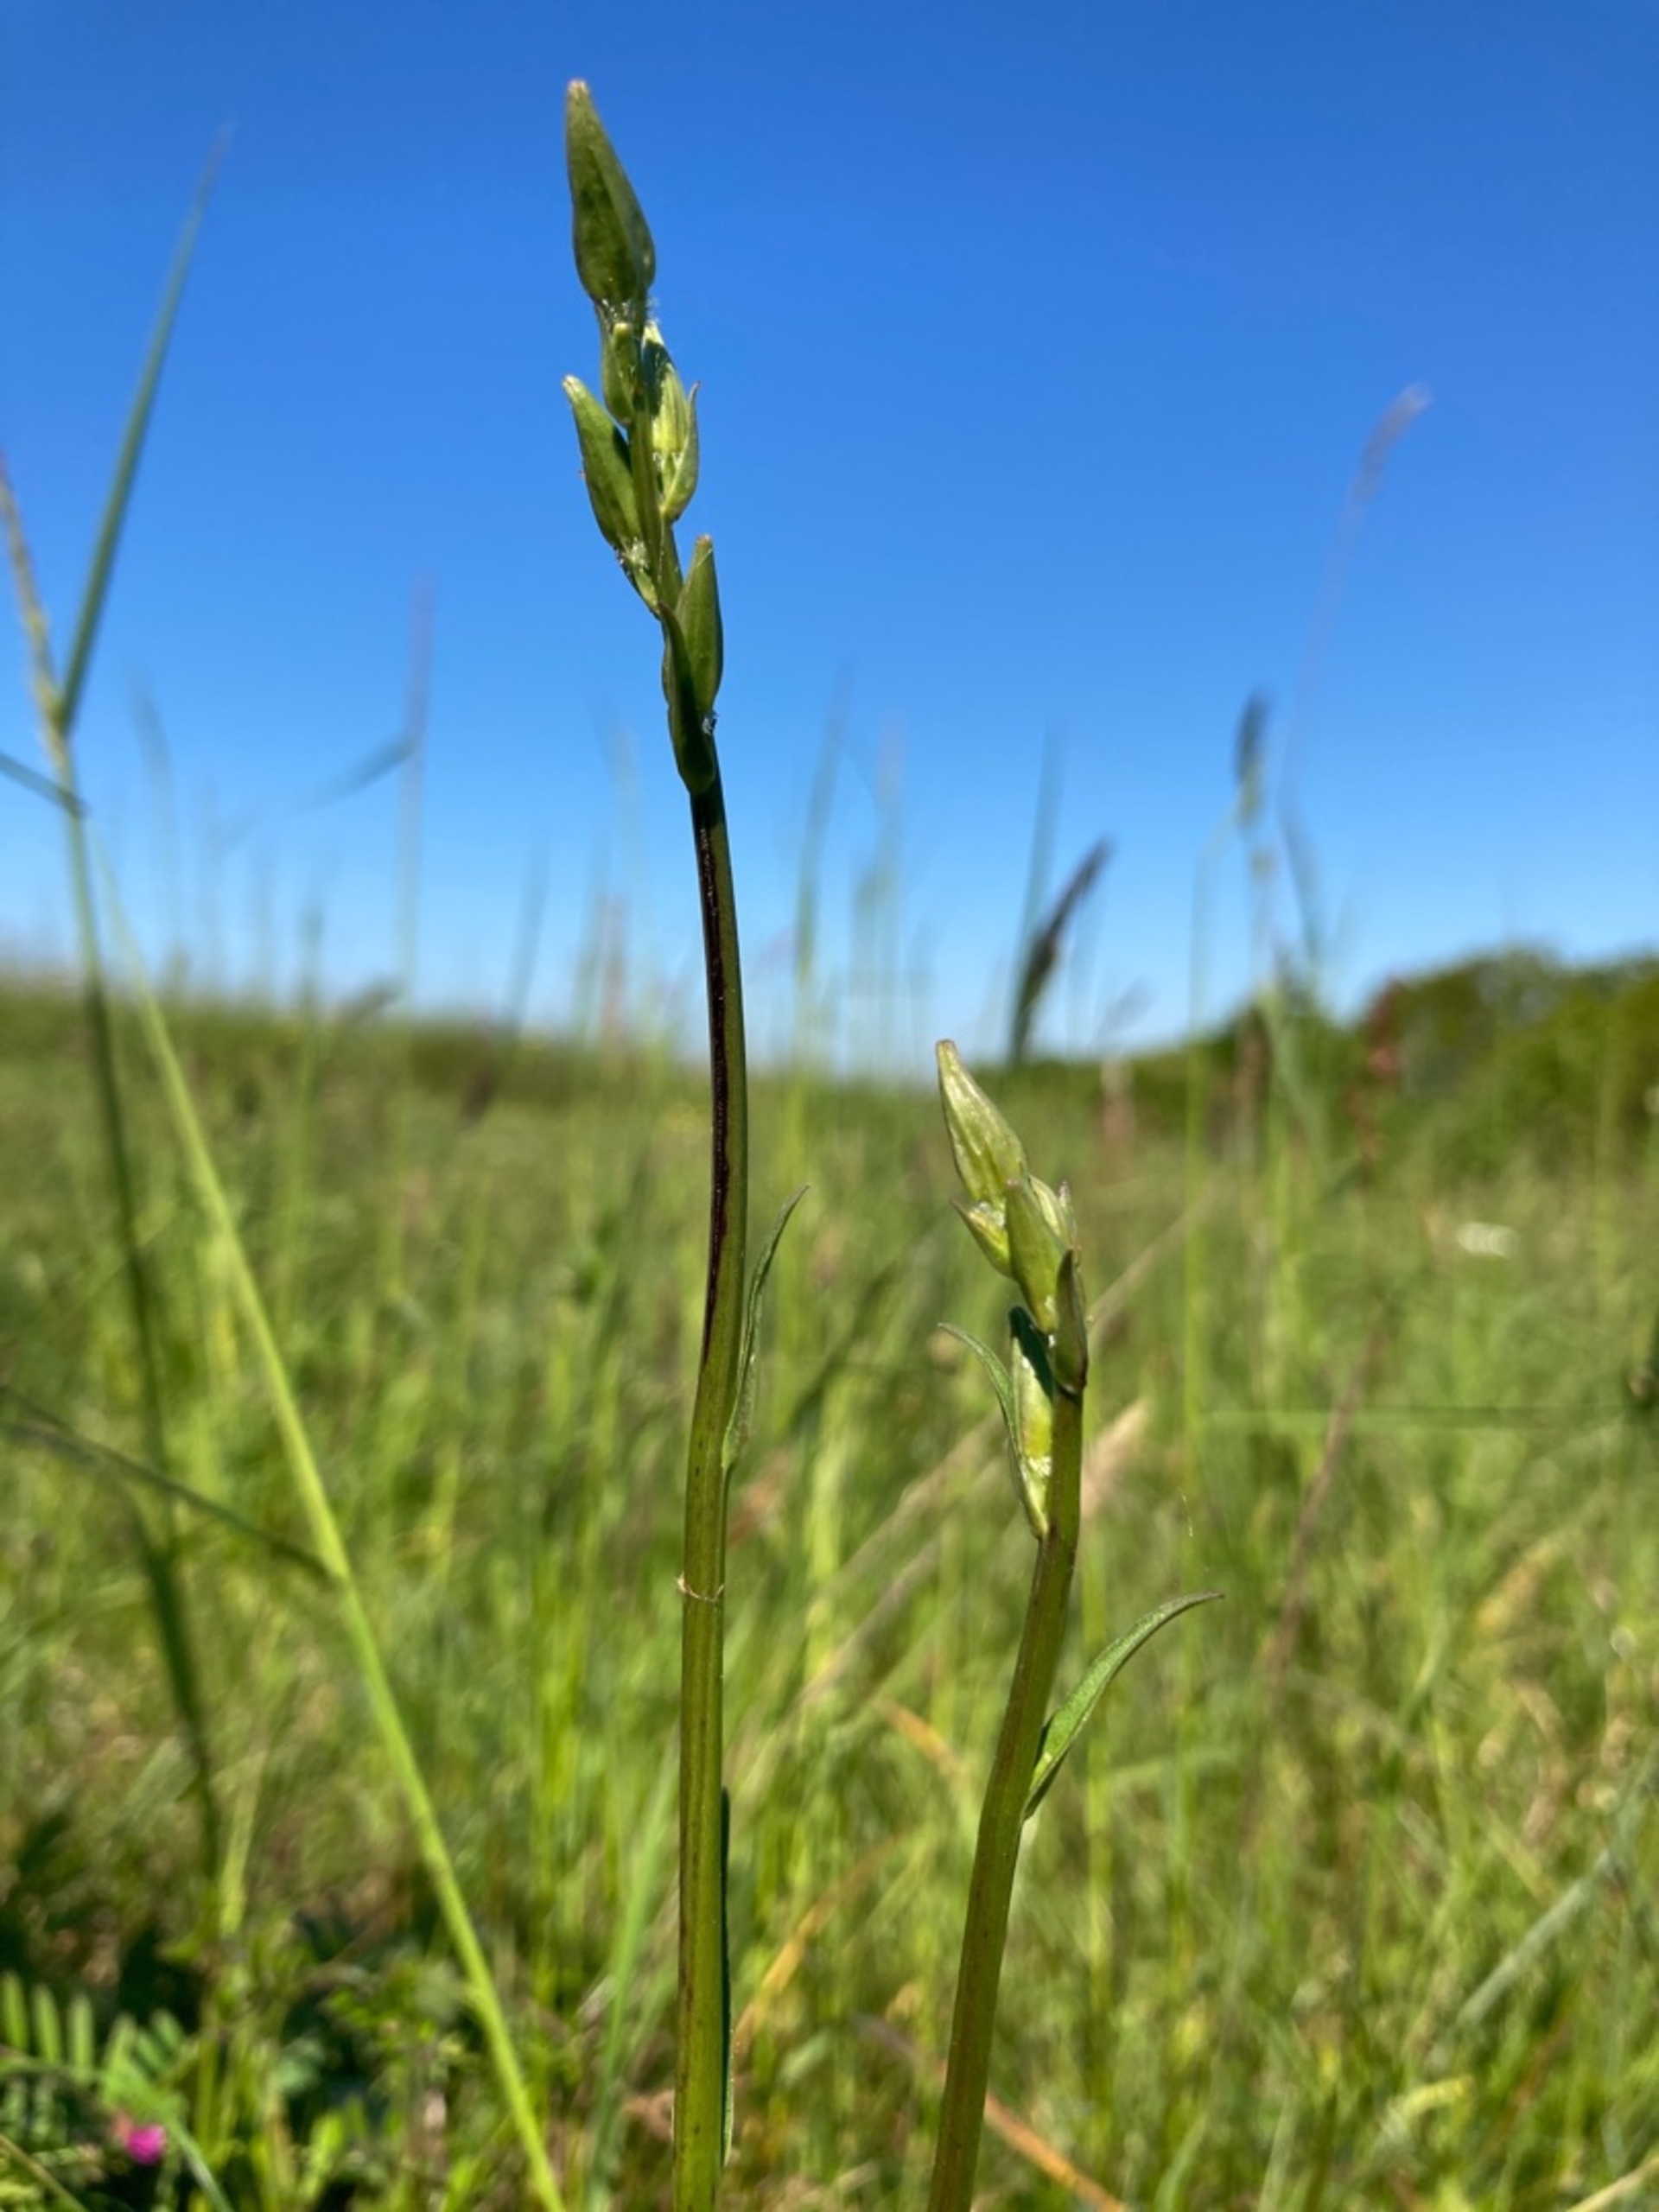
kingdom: Plantae
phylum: Tracheophyta
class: Magnoliopsida
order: Asterales
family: Campanulaceae
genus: Campanula
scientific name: Campanula persicifolia
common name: Smalbladet klokke
